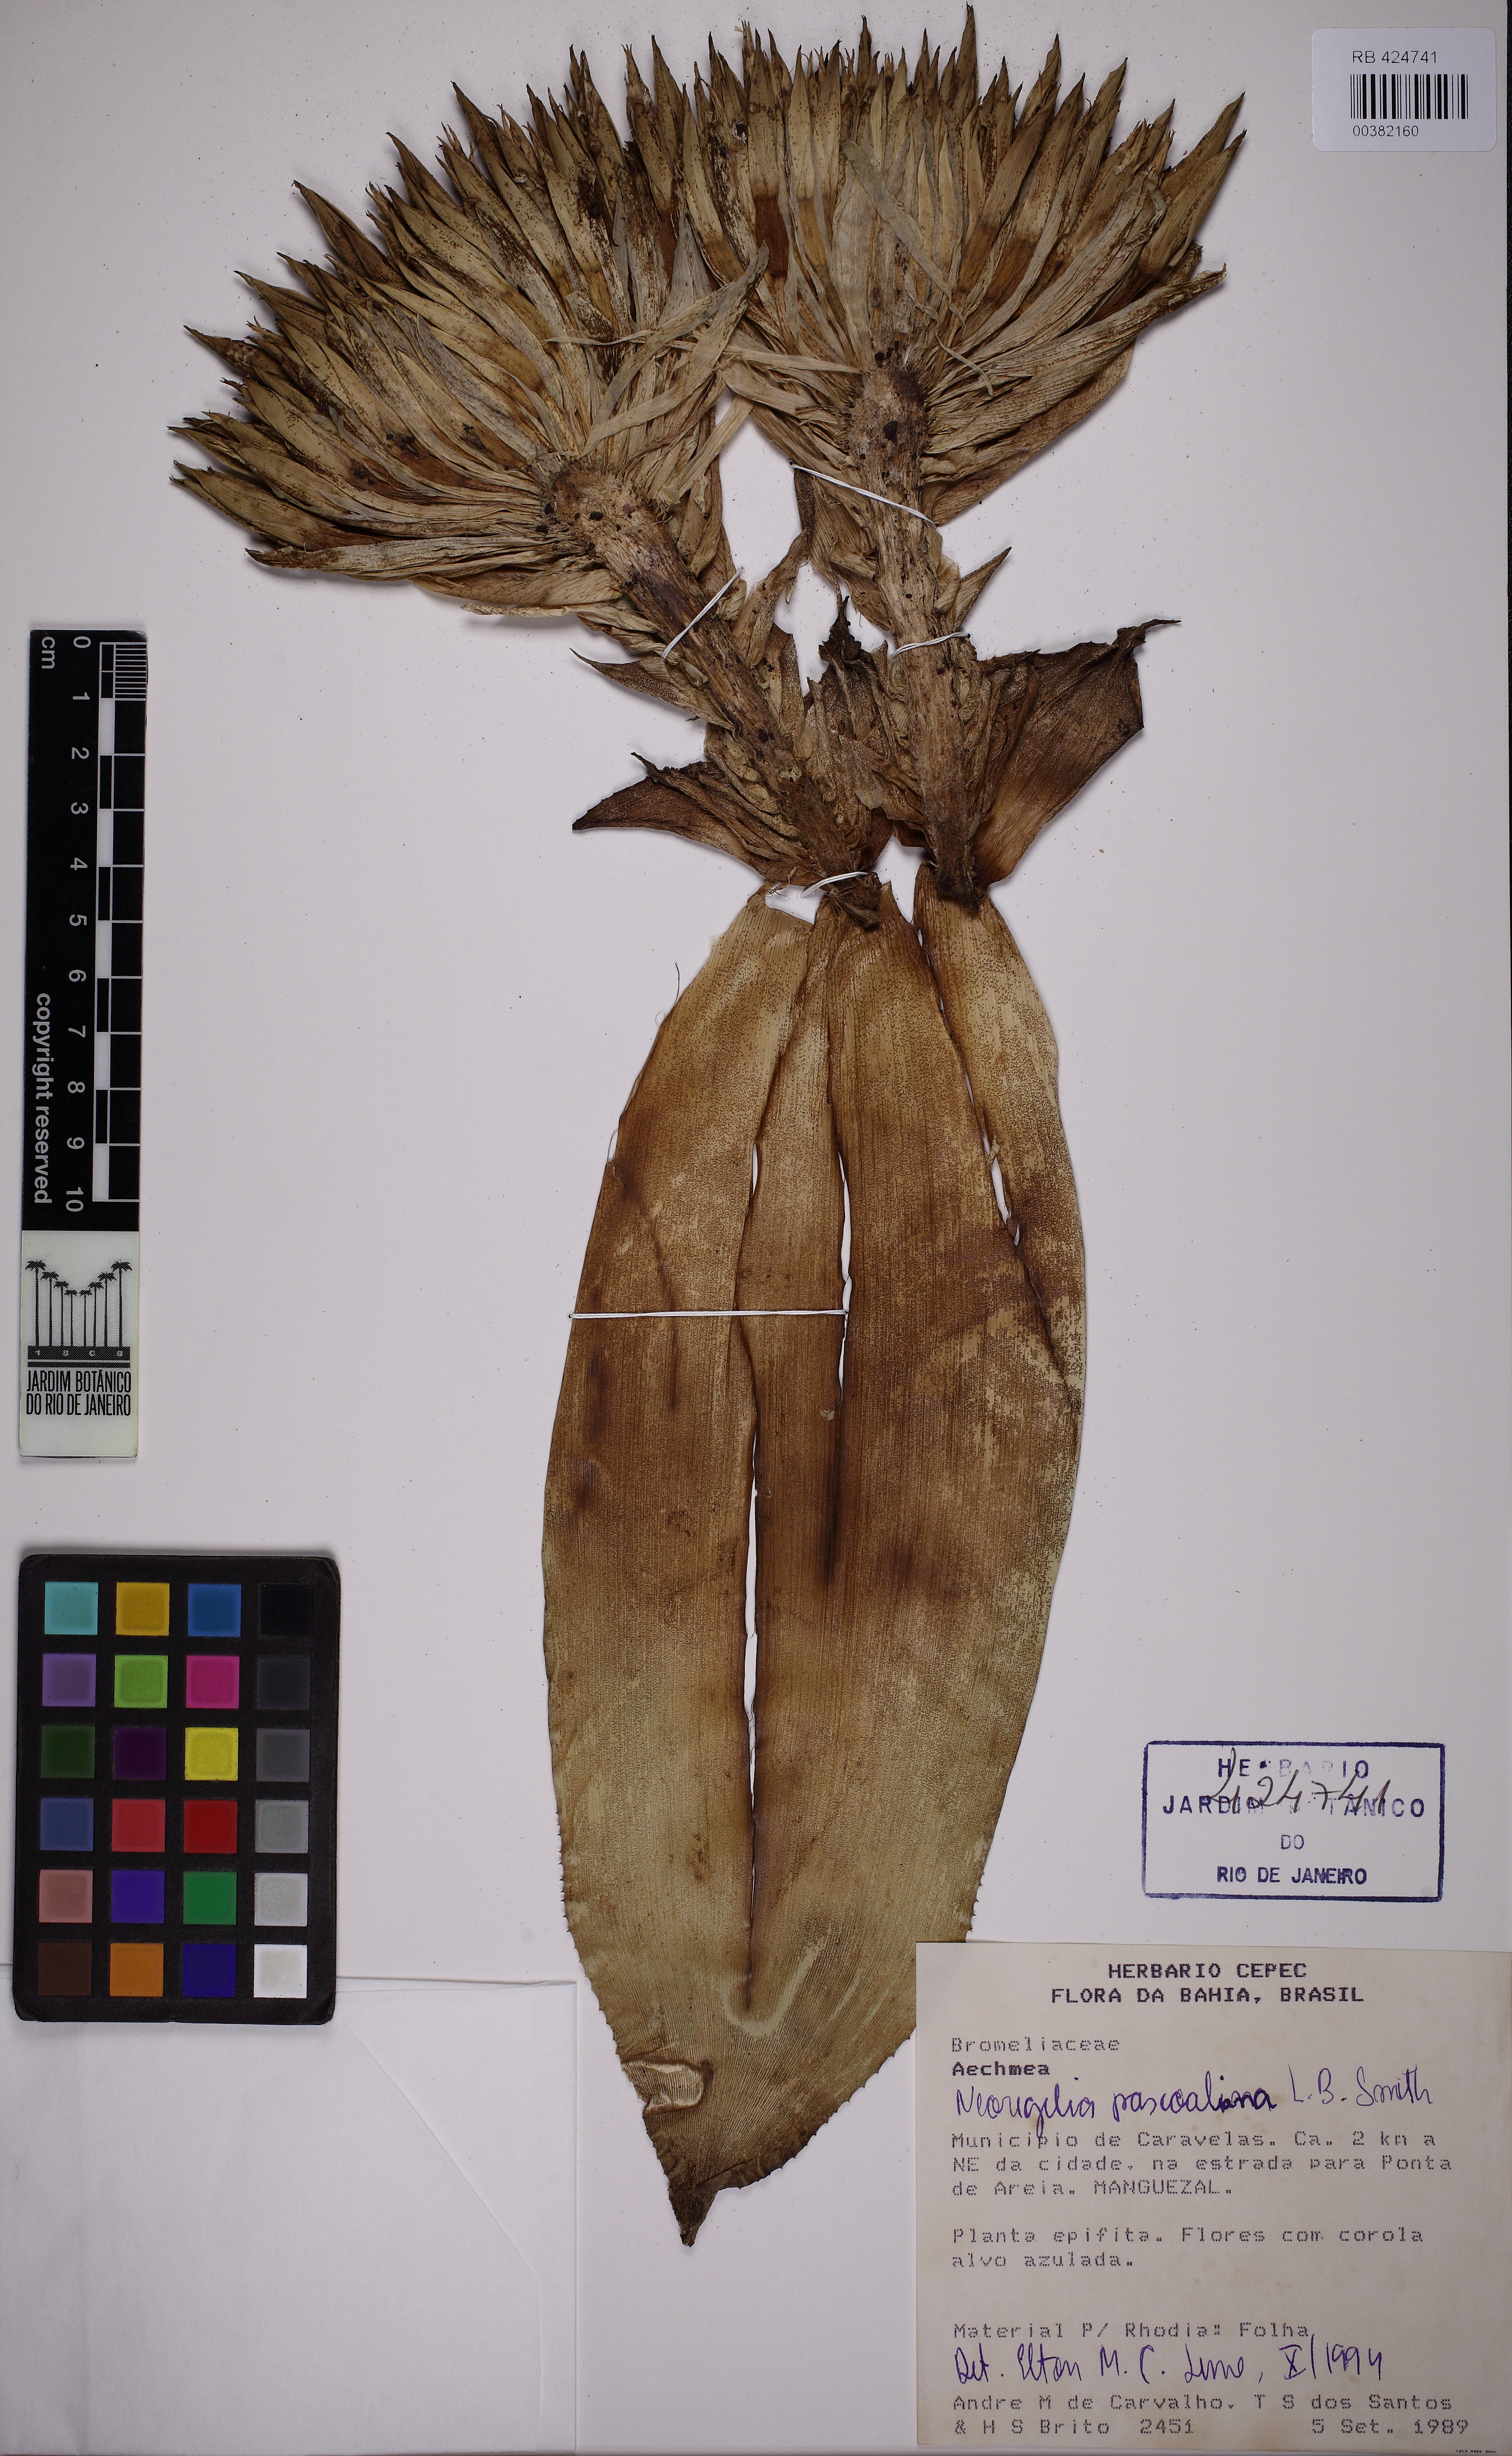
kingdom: Plantae
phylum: Tracheophyta
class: Liliopsida
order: Poales
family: Bromeliaceae
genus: Neoregelia
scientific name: Neoregelia pascoaliana
